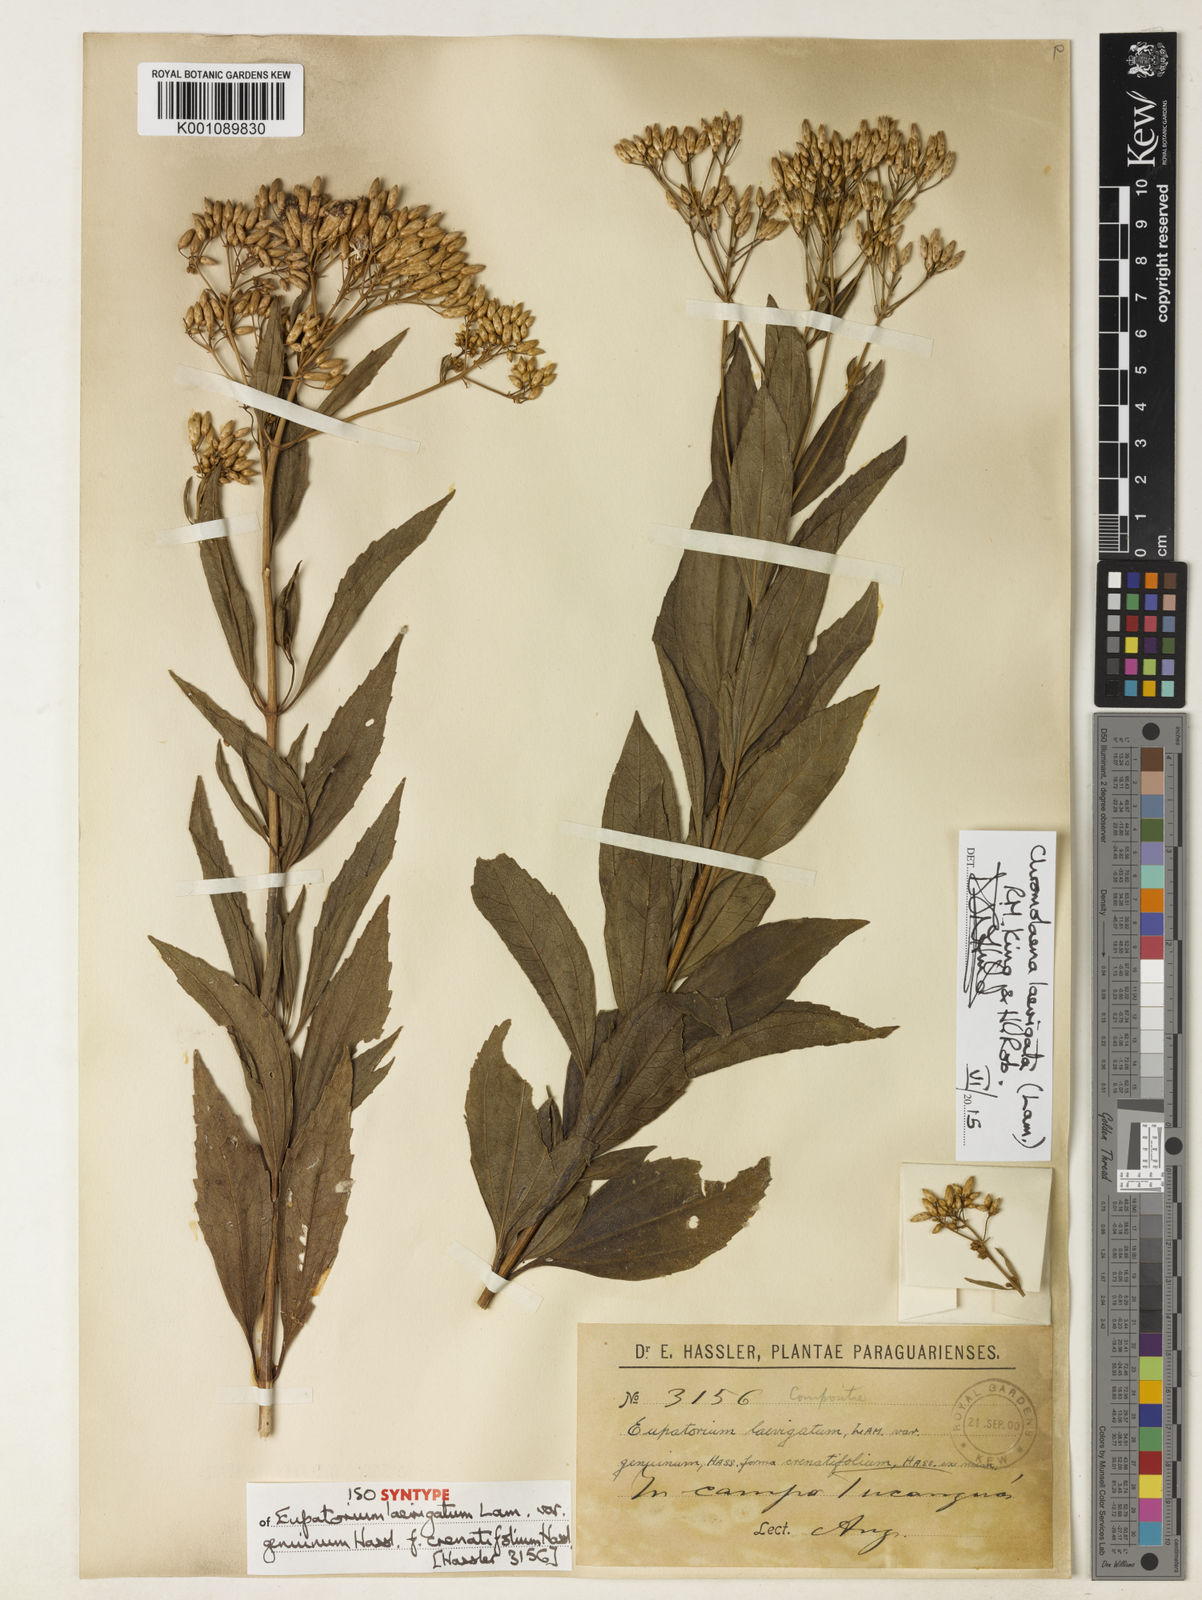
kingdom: Plantae
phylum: Tracheophyta
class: Magnoliopsida
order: Asterales
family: Asteraceae
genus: Chromolaena
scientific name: Chromolaena laevigata
